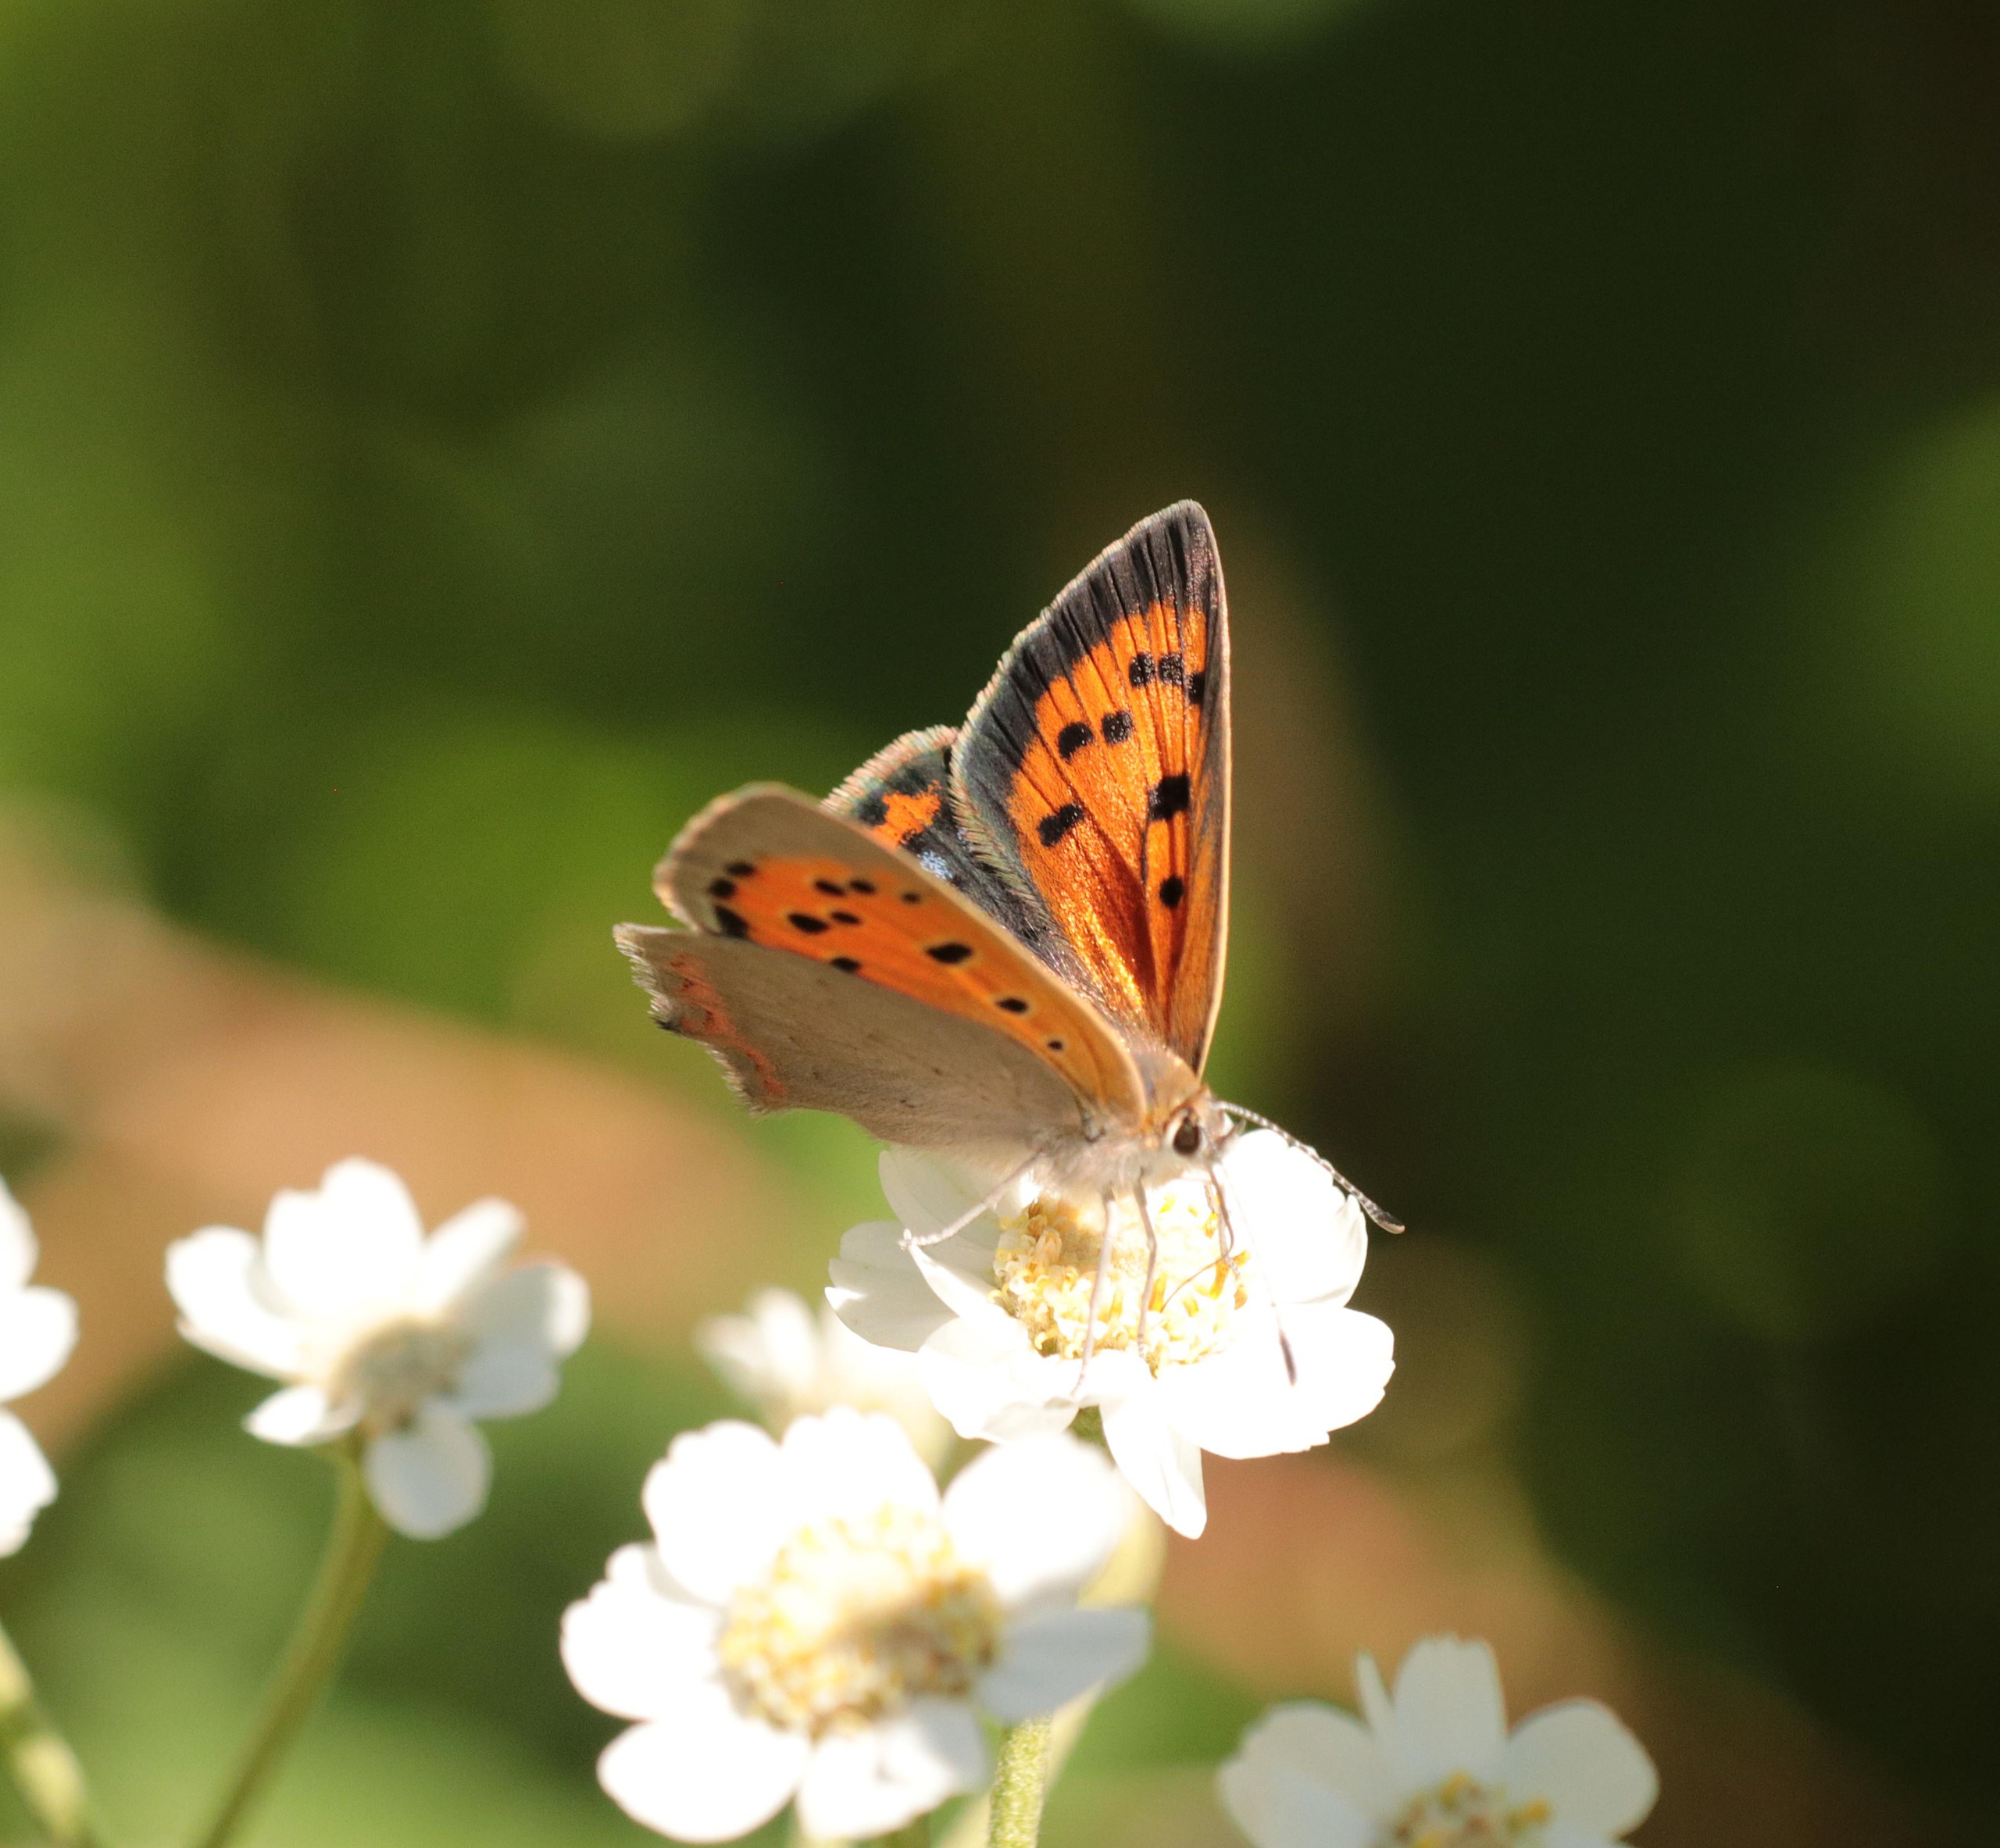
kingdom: Animalia
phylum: Arthropoda
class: Insecta
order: Lepidoptera
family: Lycaenidae
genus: Lycaena
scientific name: Lycaena phlaeas
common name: Lille ildfugl
